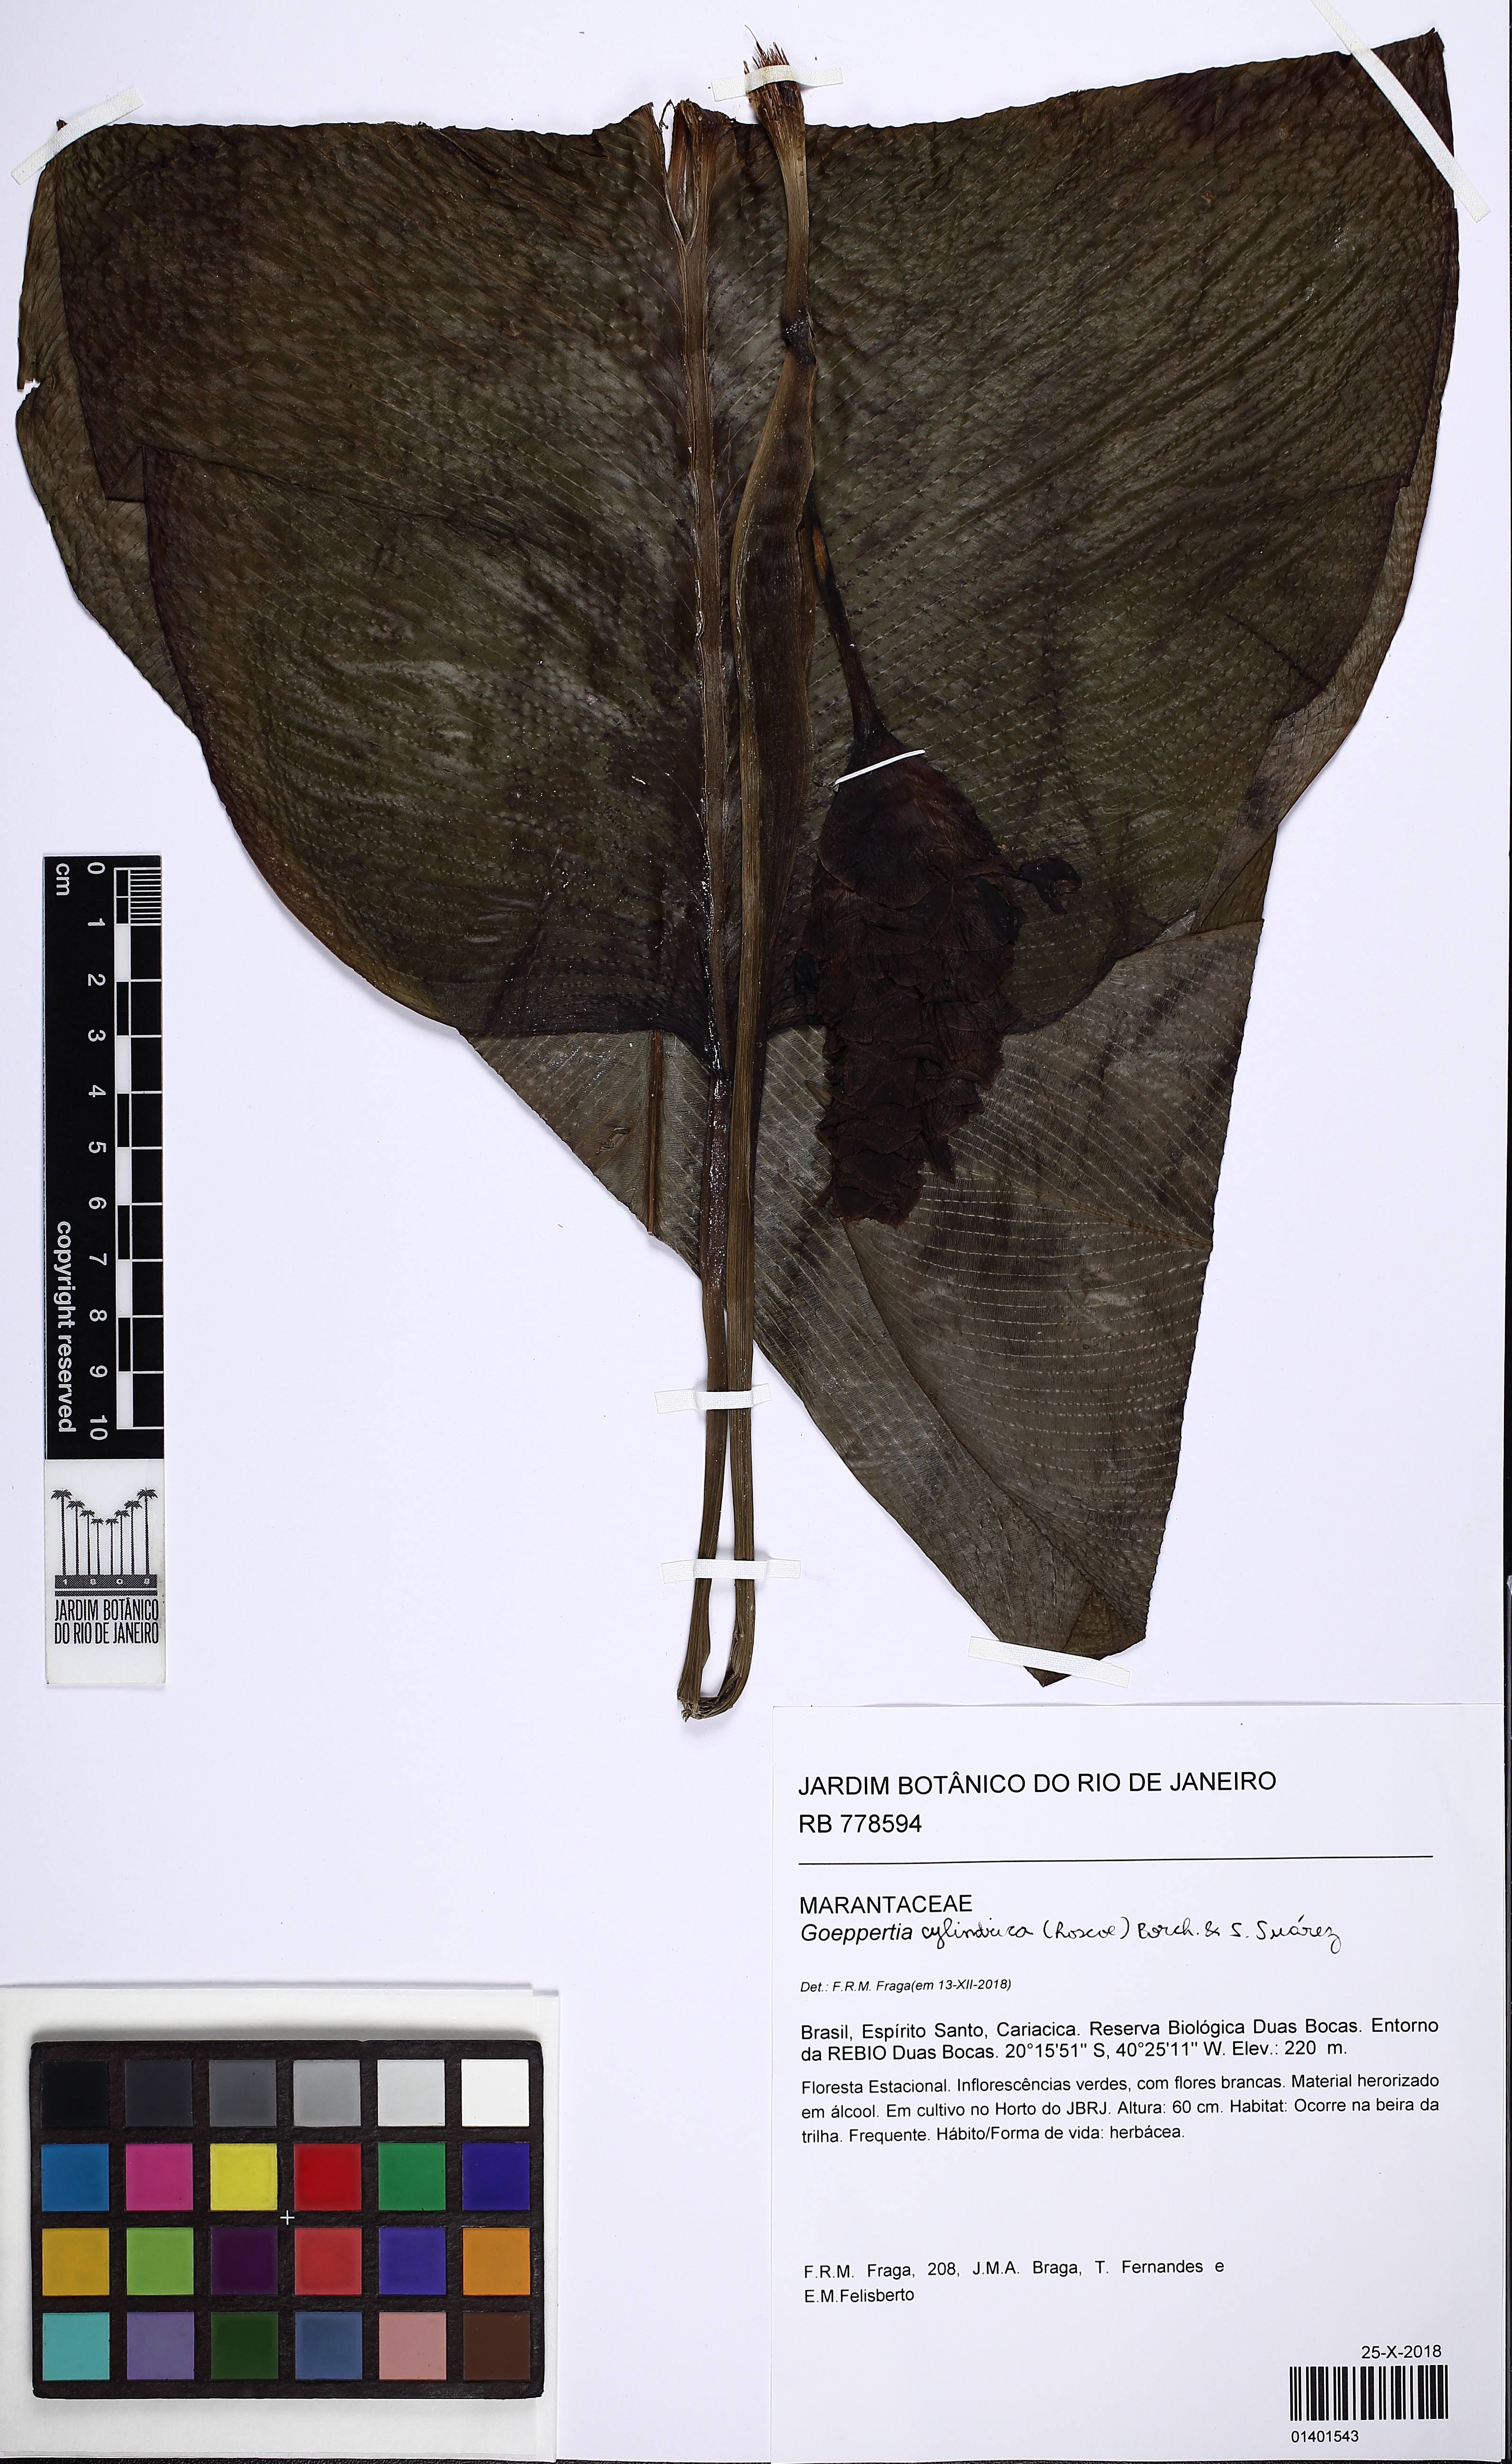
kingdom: Plantae
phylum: Tracheophyta
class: Liliopsida
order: Zingiberales
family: Marantaceae
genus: Goeppertia
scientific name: Goeppertia cylindrica
